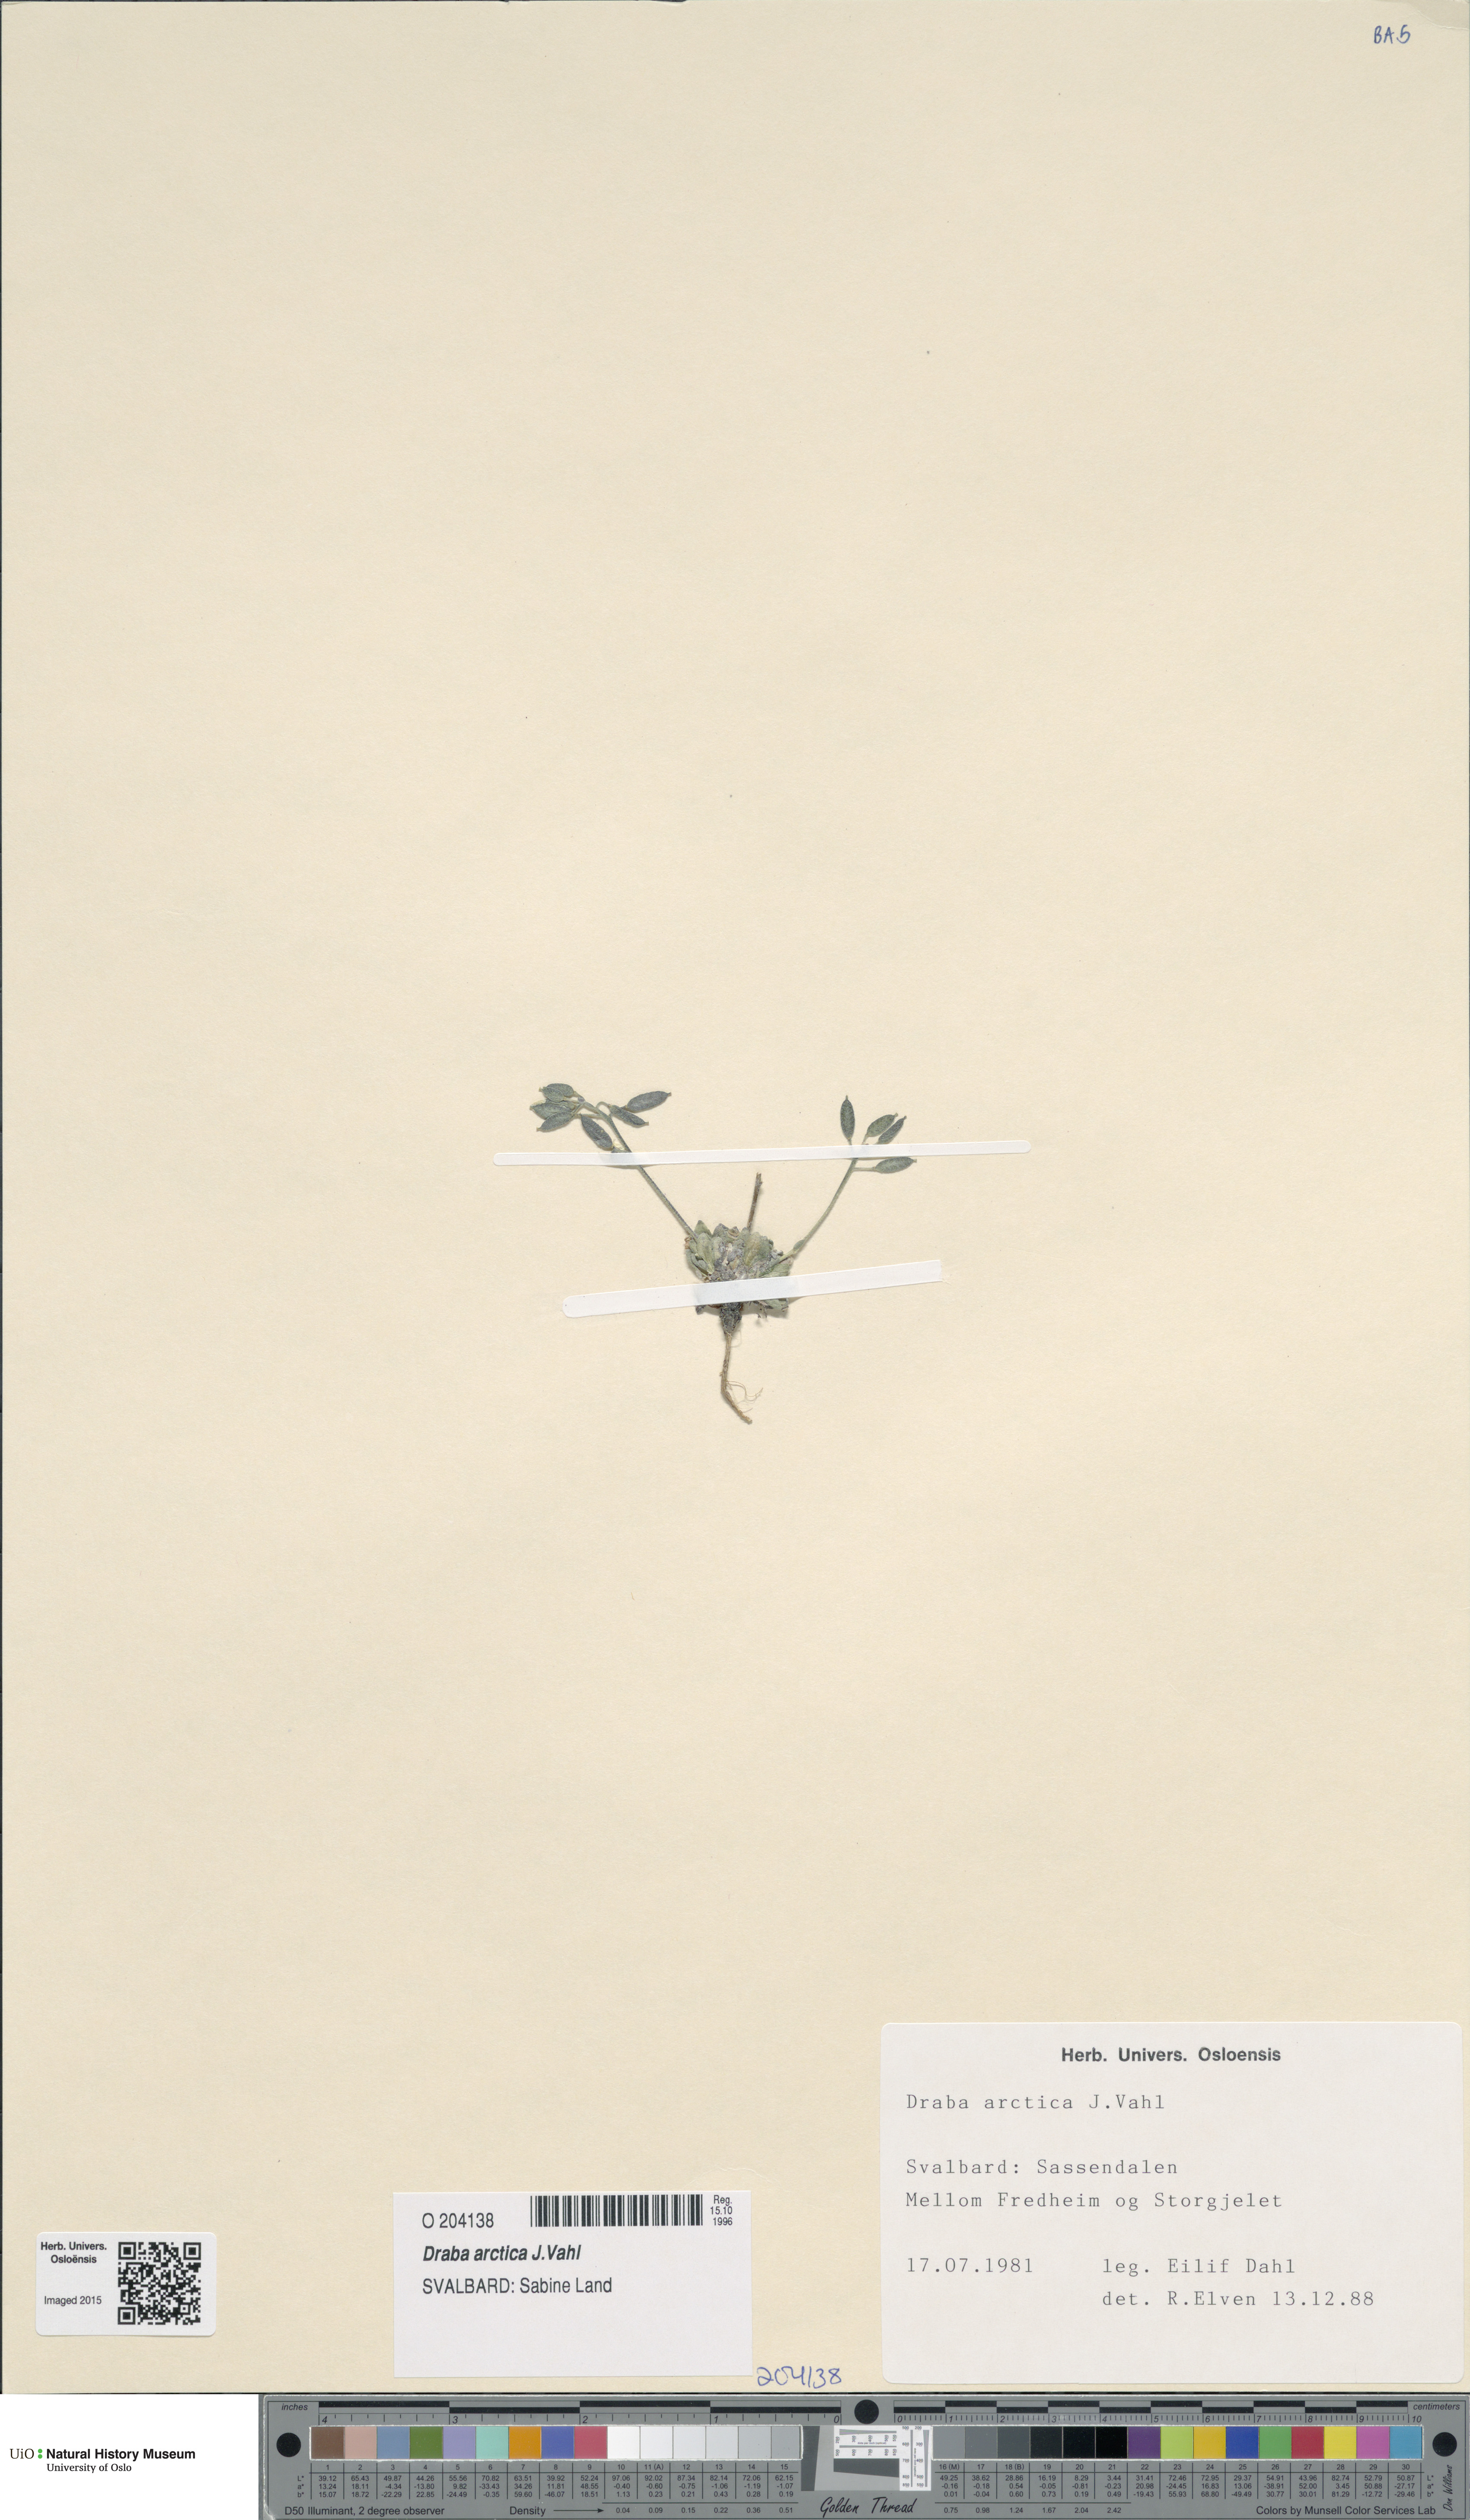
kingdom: Plantae
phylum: Tracheophyta
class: Magnoliopsida
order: Brassicales
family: Brassicaceae
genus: Draba
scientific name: Draba arctica
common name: Arctic draba
